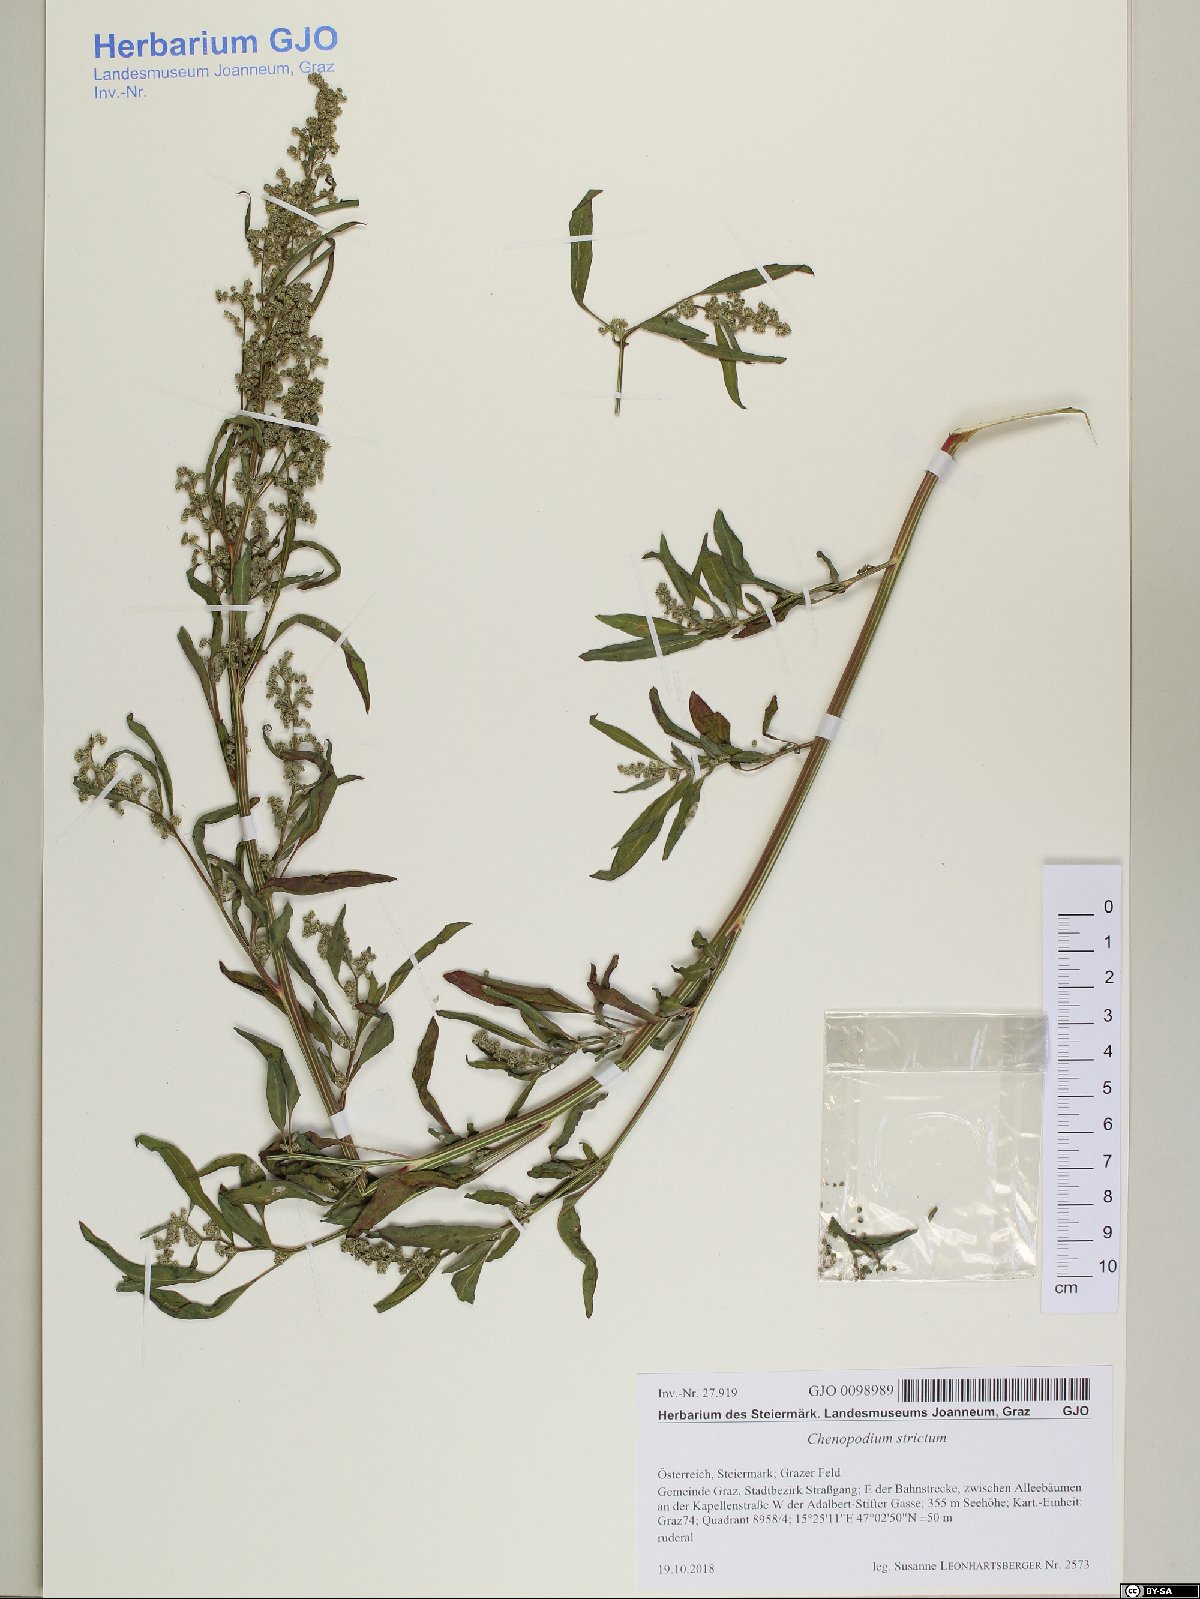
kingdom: Plantae
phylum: Tracheophyta
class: Magnoliopsida
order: Caryophyllales
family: Amaranthaceae
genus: Chenopodium
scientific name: Chenopodium album
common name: Fat-hen
